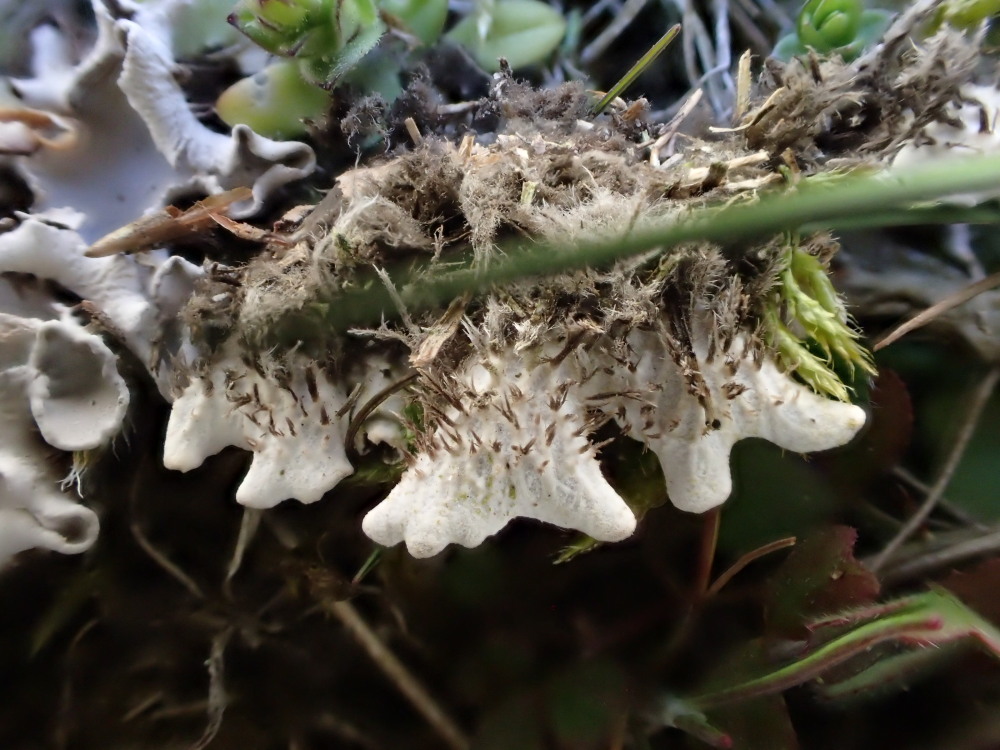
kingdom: Fungi
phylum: Ascomycota
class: Lecanoromycetes
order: Peltigerales
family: Peltigeraceae
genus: Peltigera
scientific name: Peltigera rufescens
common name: brun skjoldlav
